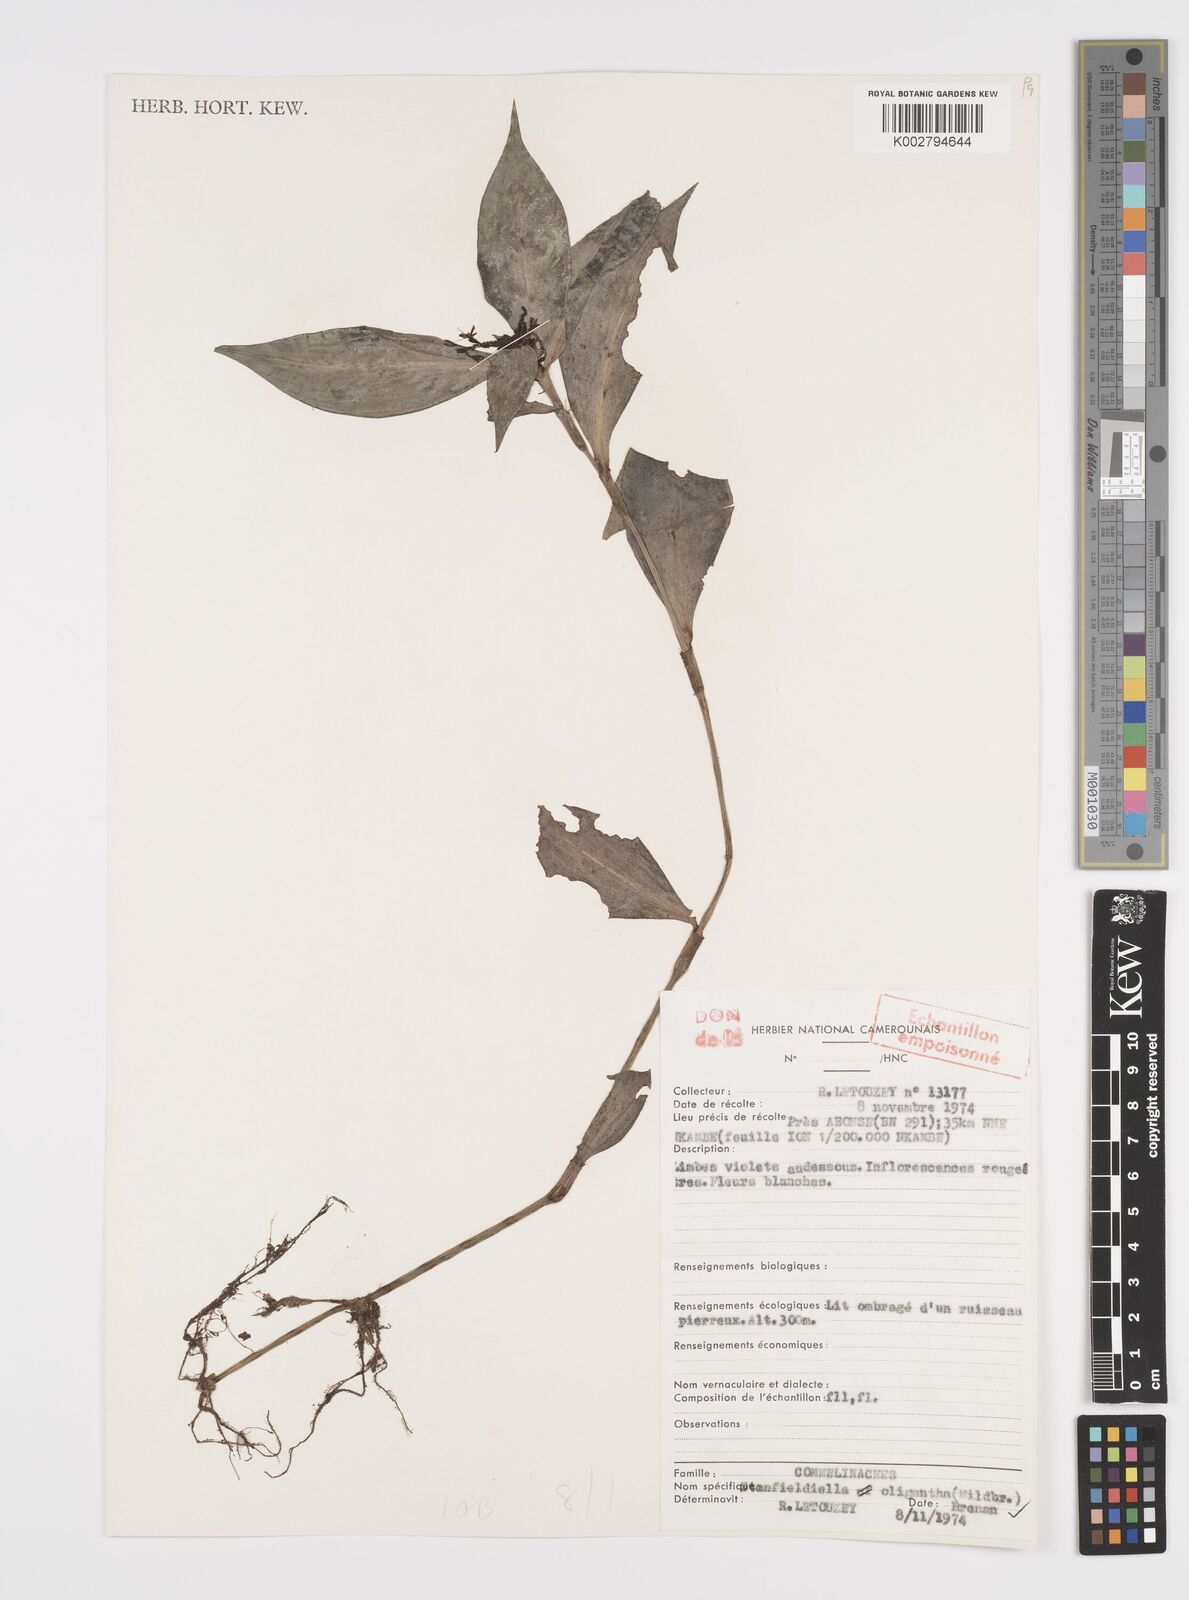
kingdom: Plantae
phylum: Tracheophyta
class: Liliopsida
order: Commelinales
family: Commelinaceae
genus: Stanfieldiella
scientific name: Stanfieldiella oligantha
